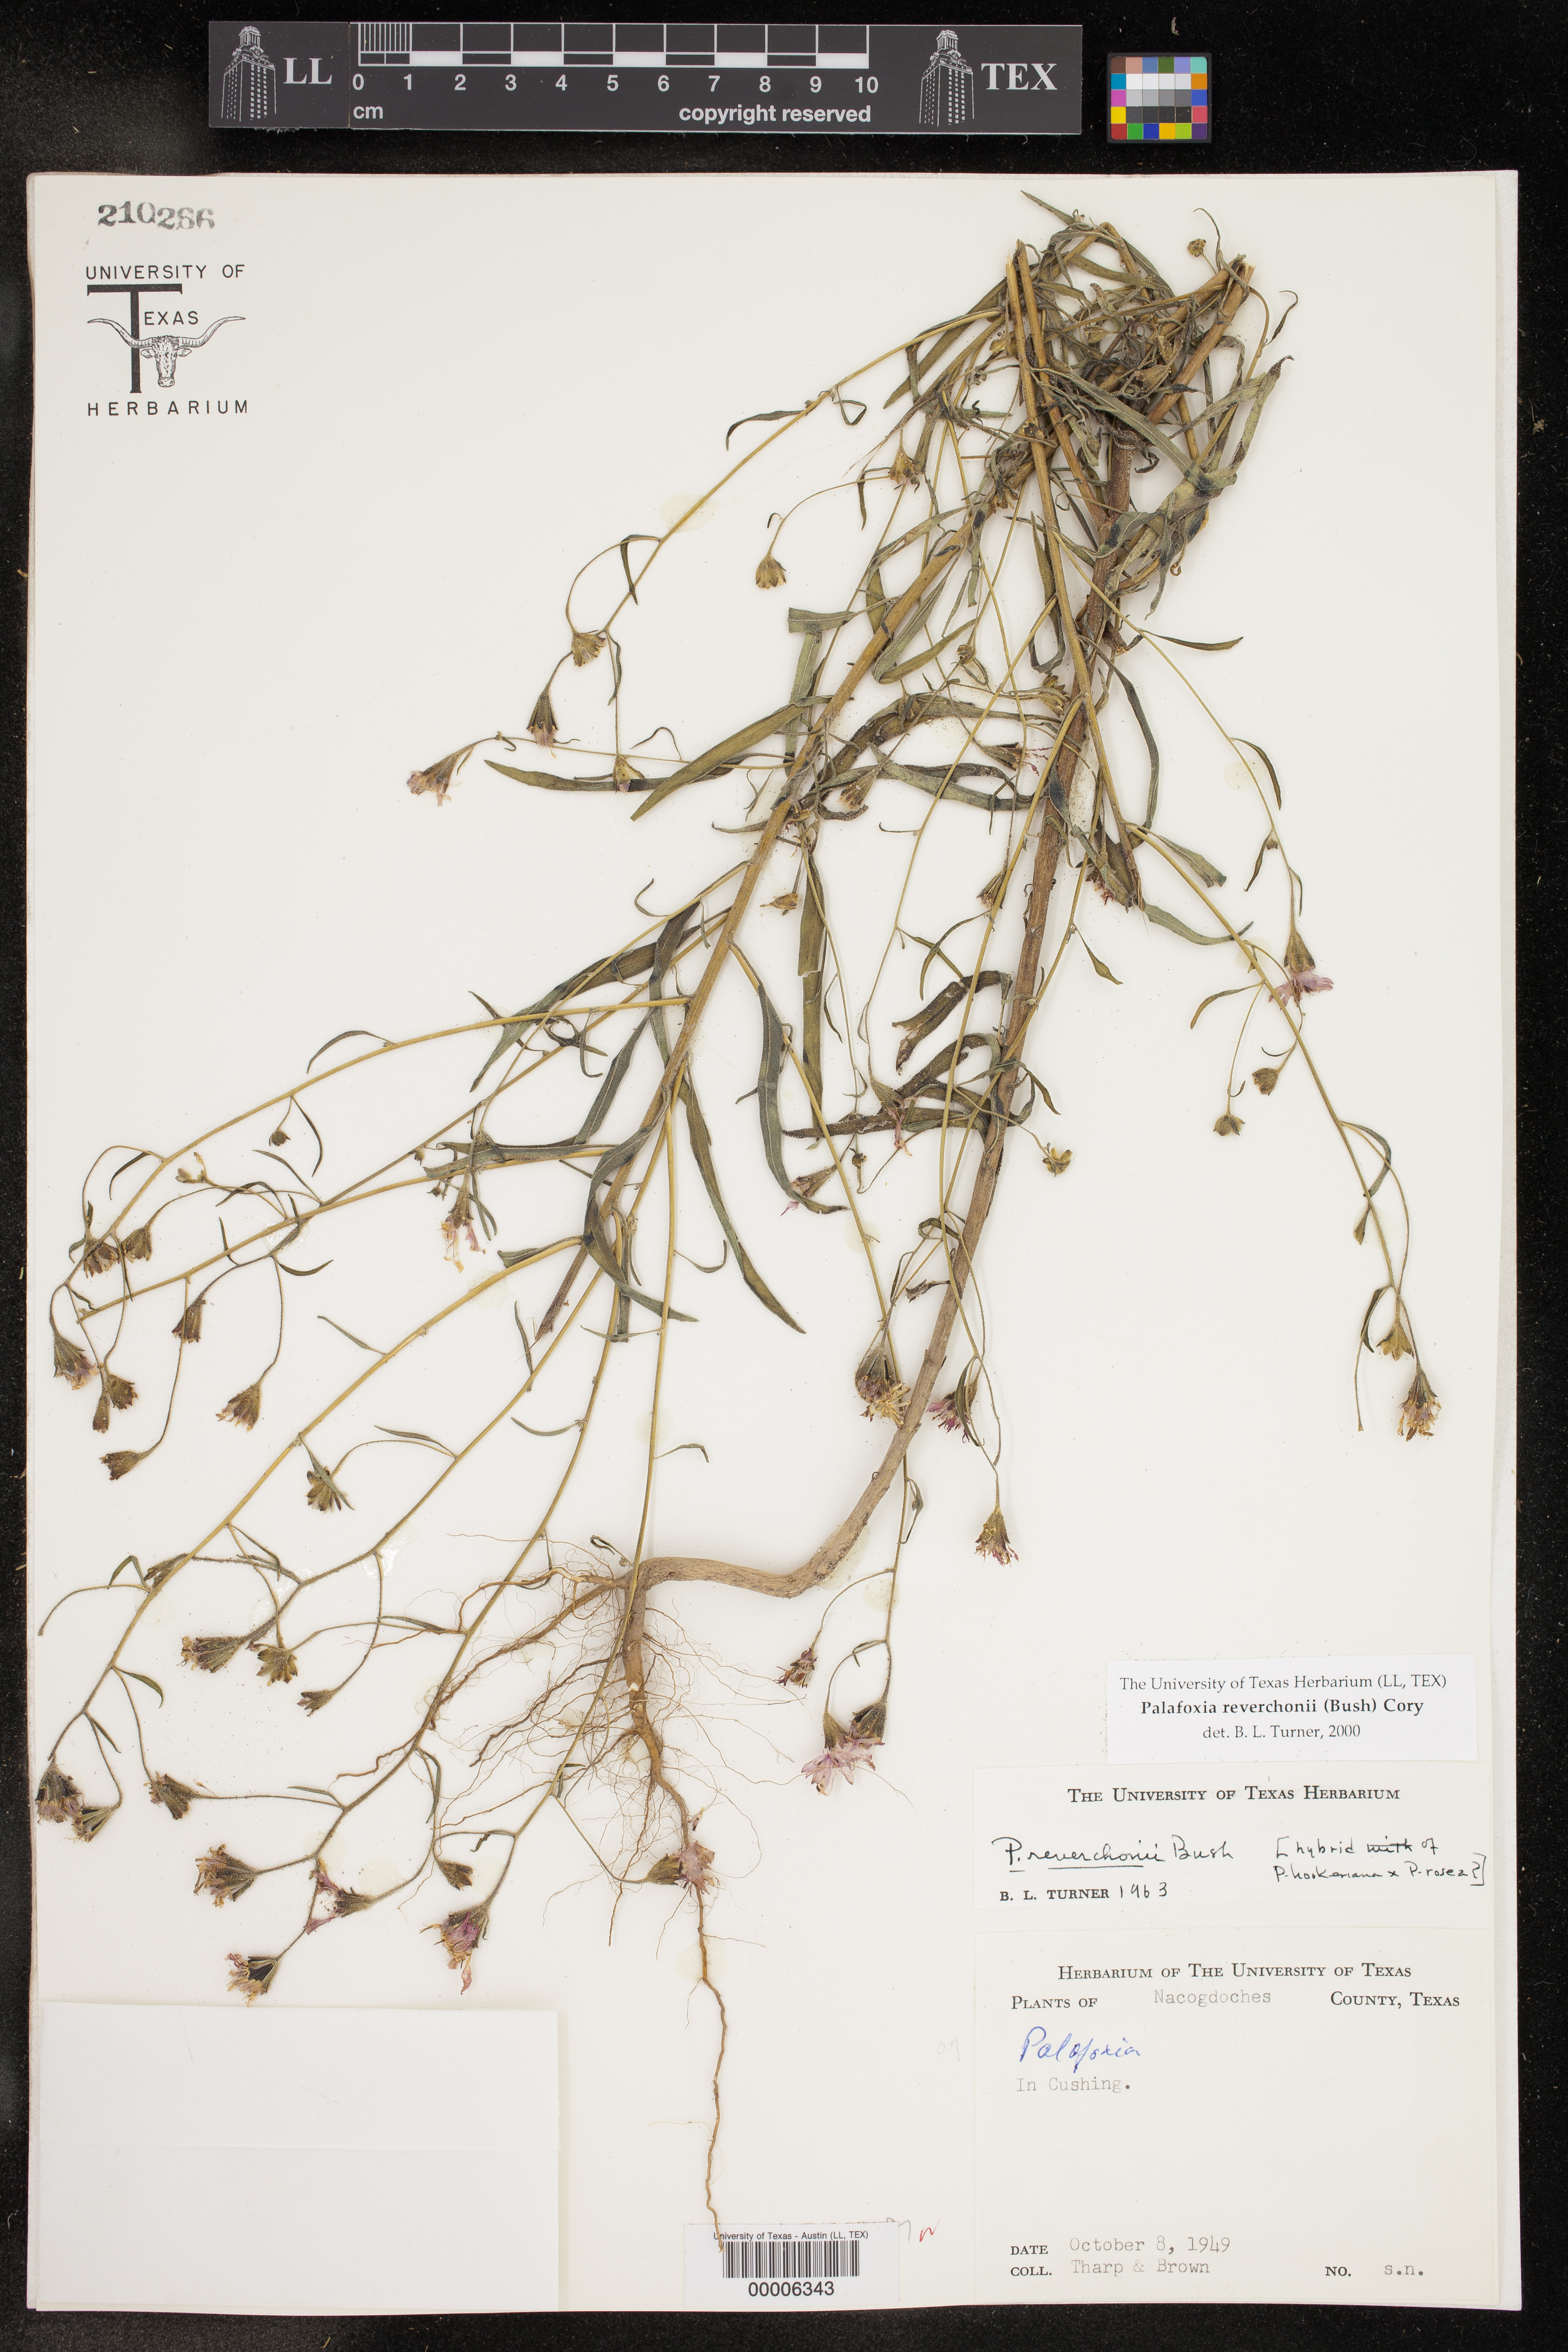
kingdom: Plantae
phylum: Tracheophyta
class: Magnoliopsida
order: Asterales
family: Asteraceae
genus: Palafoxia
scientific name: Palafoxia reverchonii
